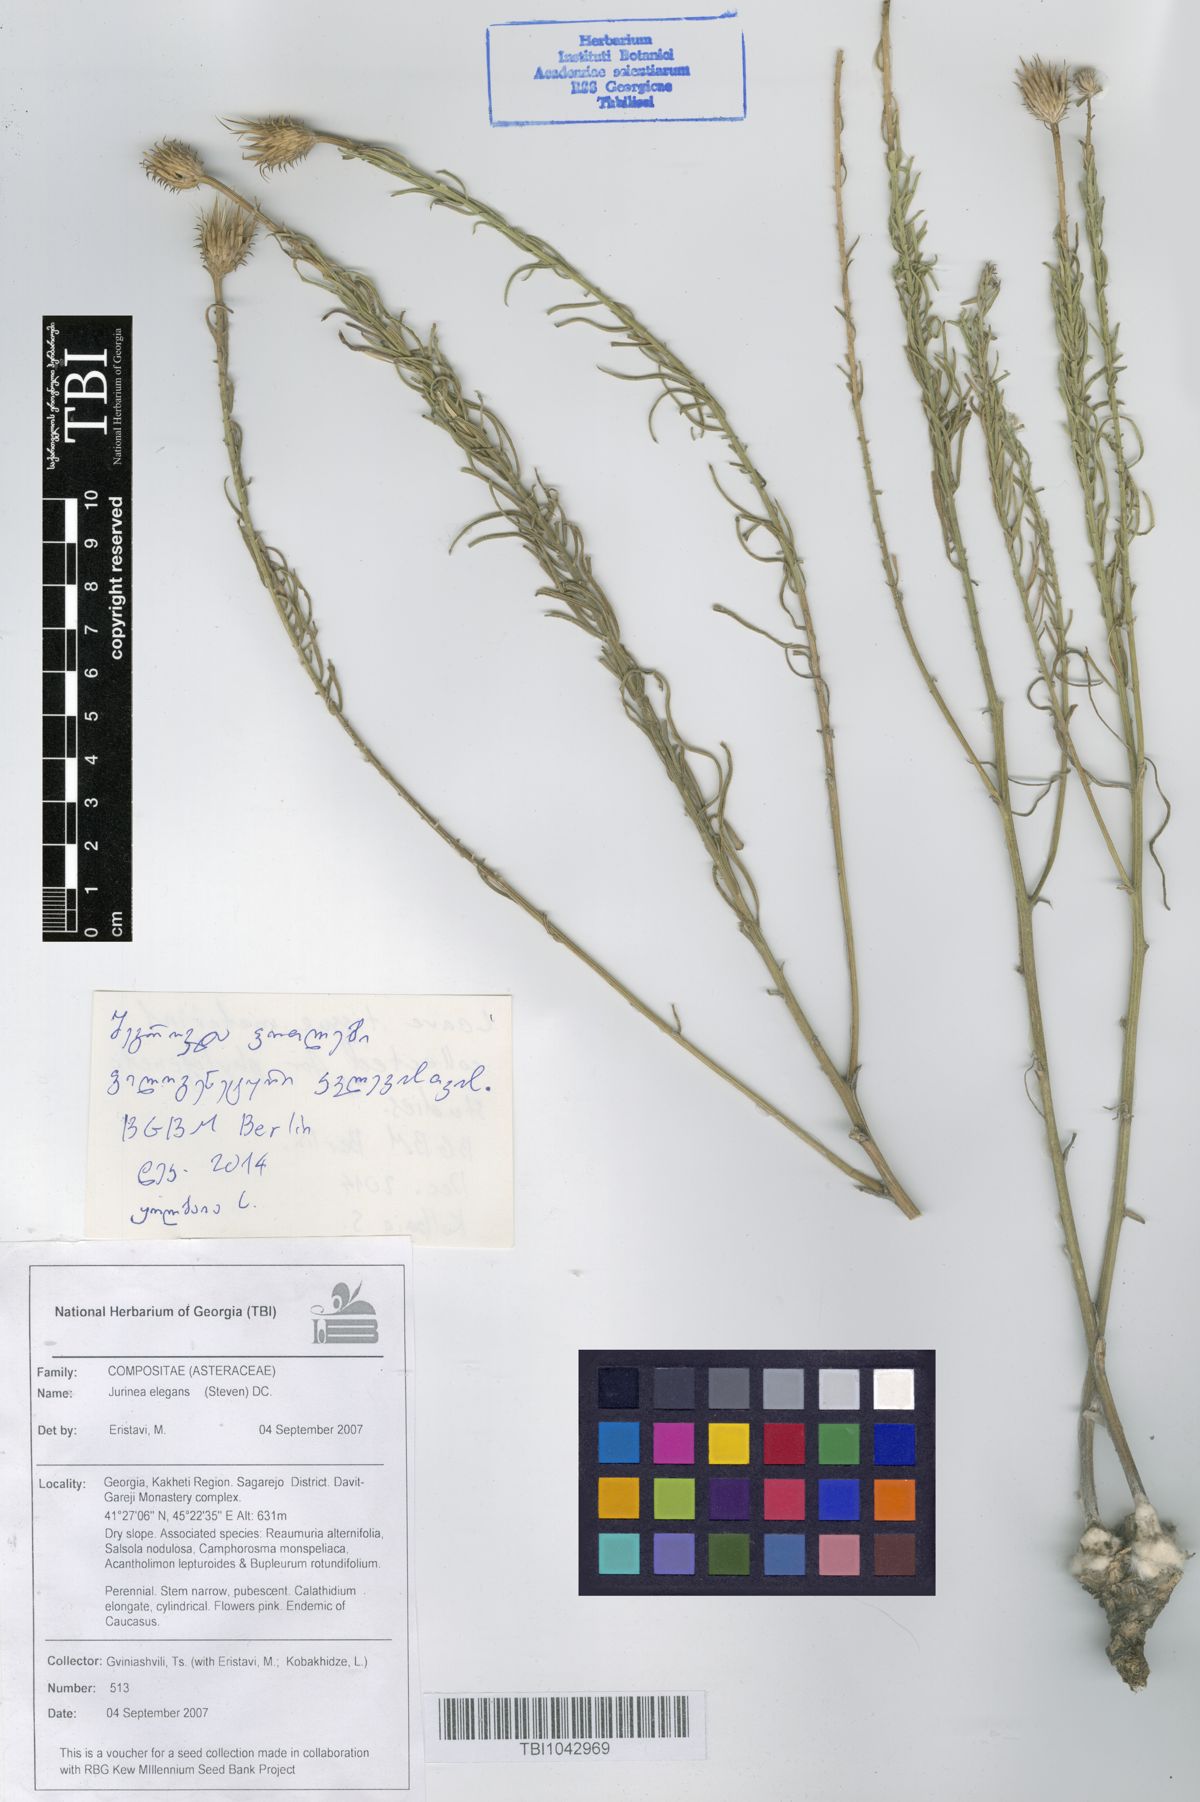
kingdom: Plantae
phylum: Tracheophyta
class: Magnoliopsida
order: Asterales
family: Asteraceae
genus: Jurinea
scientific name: Jurinea elegans
